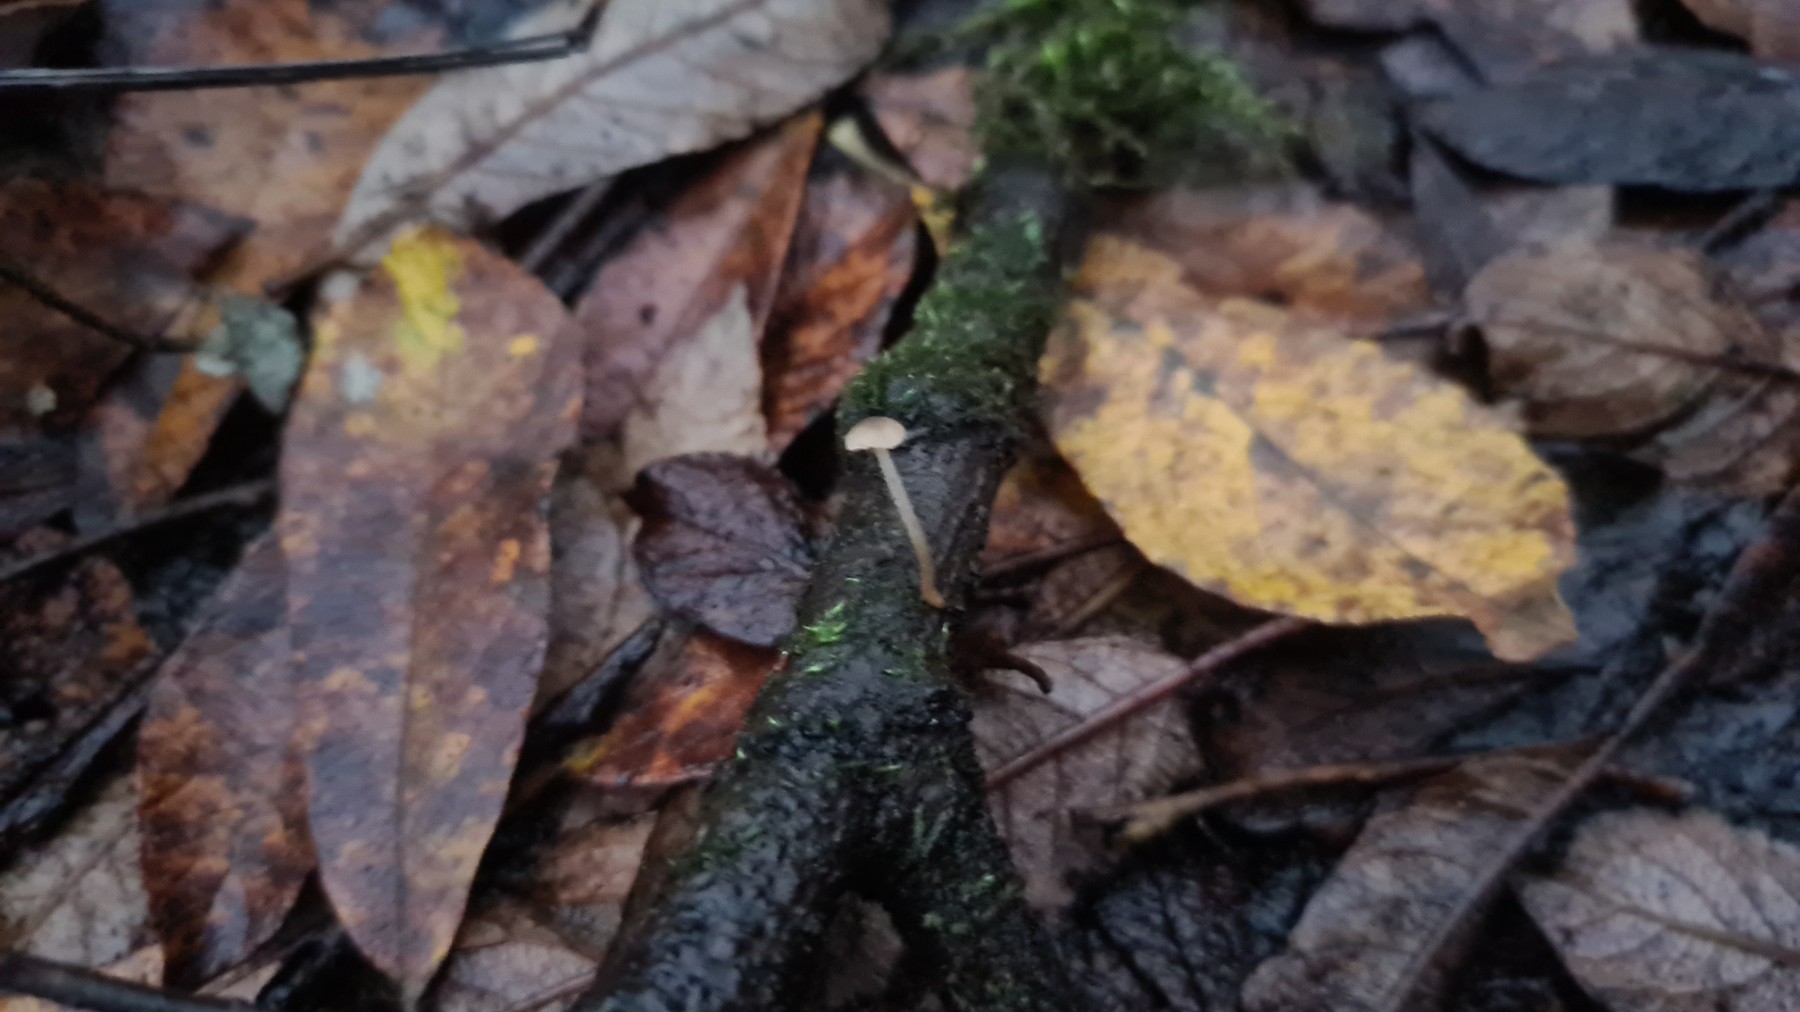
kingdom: Fungi
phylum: Basidiomycota
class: Agaricomycetes
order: Agaricales
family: Porotheleaceae
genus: Phloeomana
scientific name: Phloeomana speirea
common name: kvist-huesvamp
